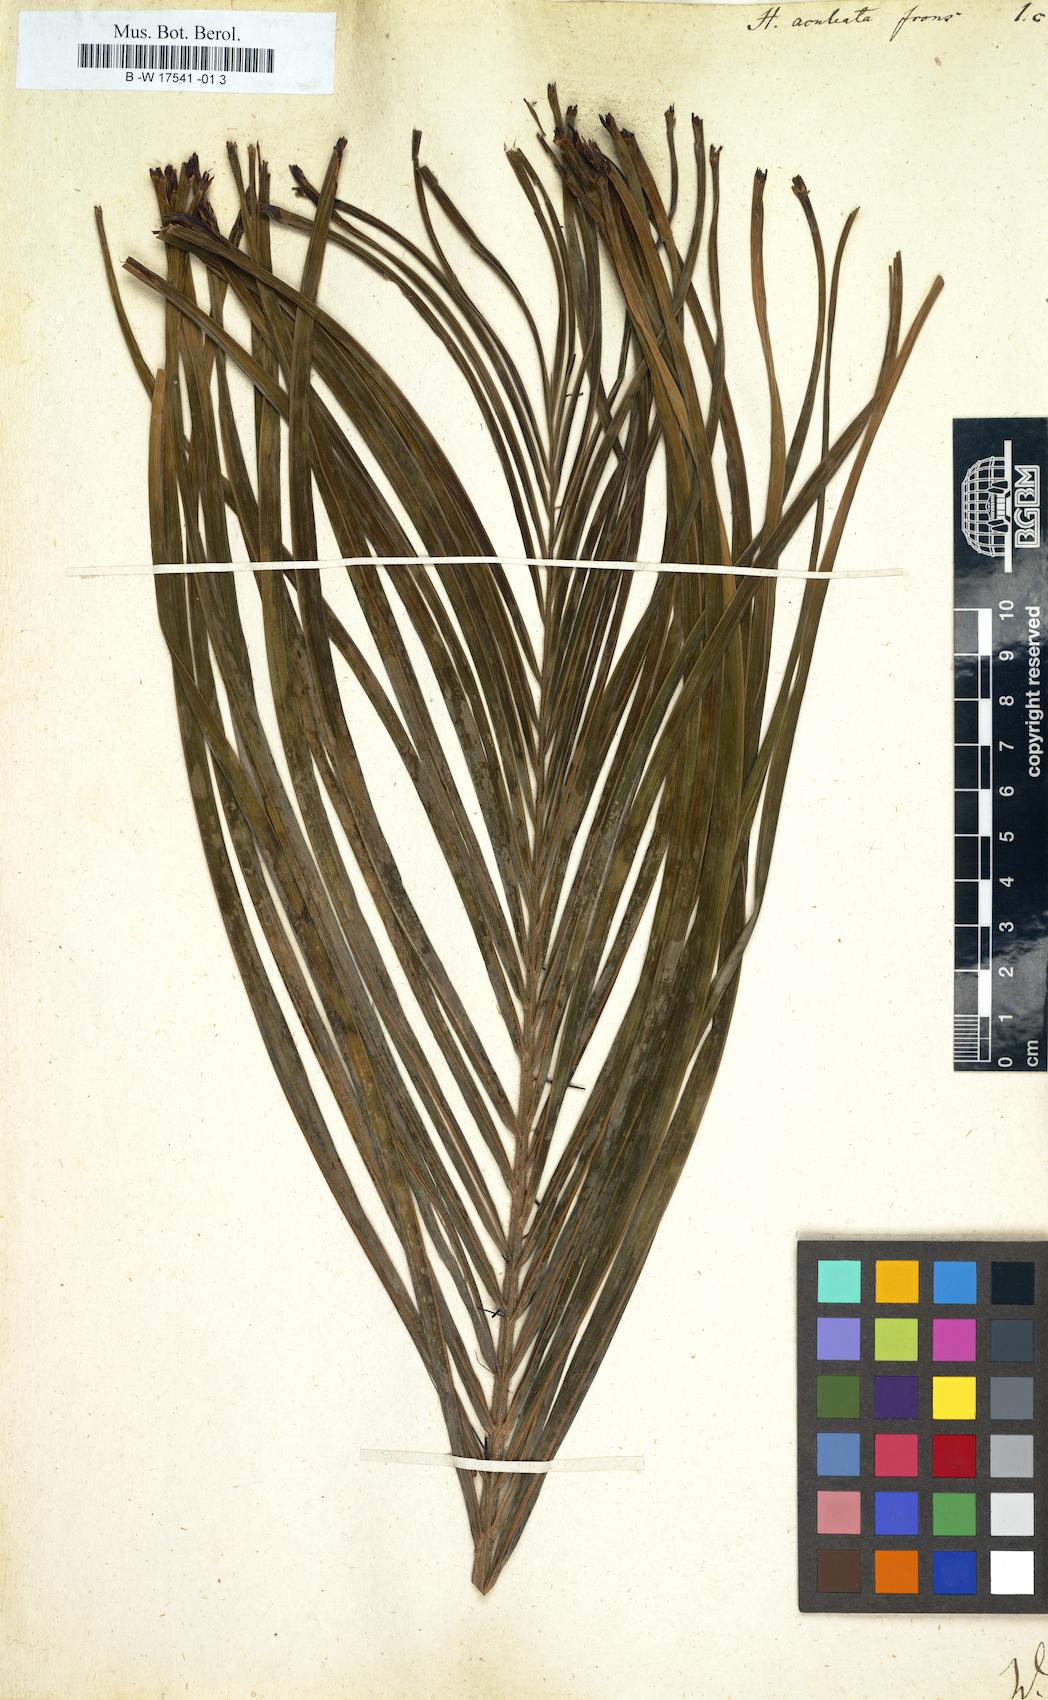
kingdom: Plantae
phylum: Tracheophyta
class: Magnoliopsida
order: Malpighiales
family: Euphorbiaceae
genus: Homonoia
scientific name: Homonoia
